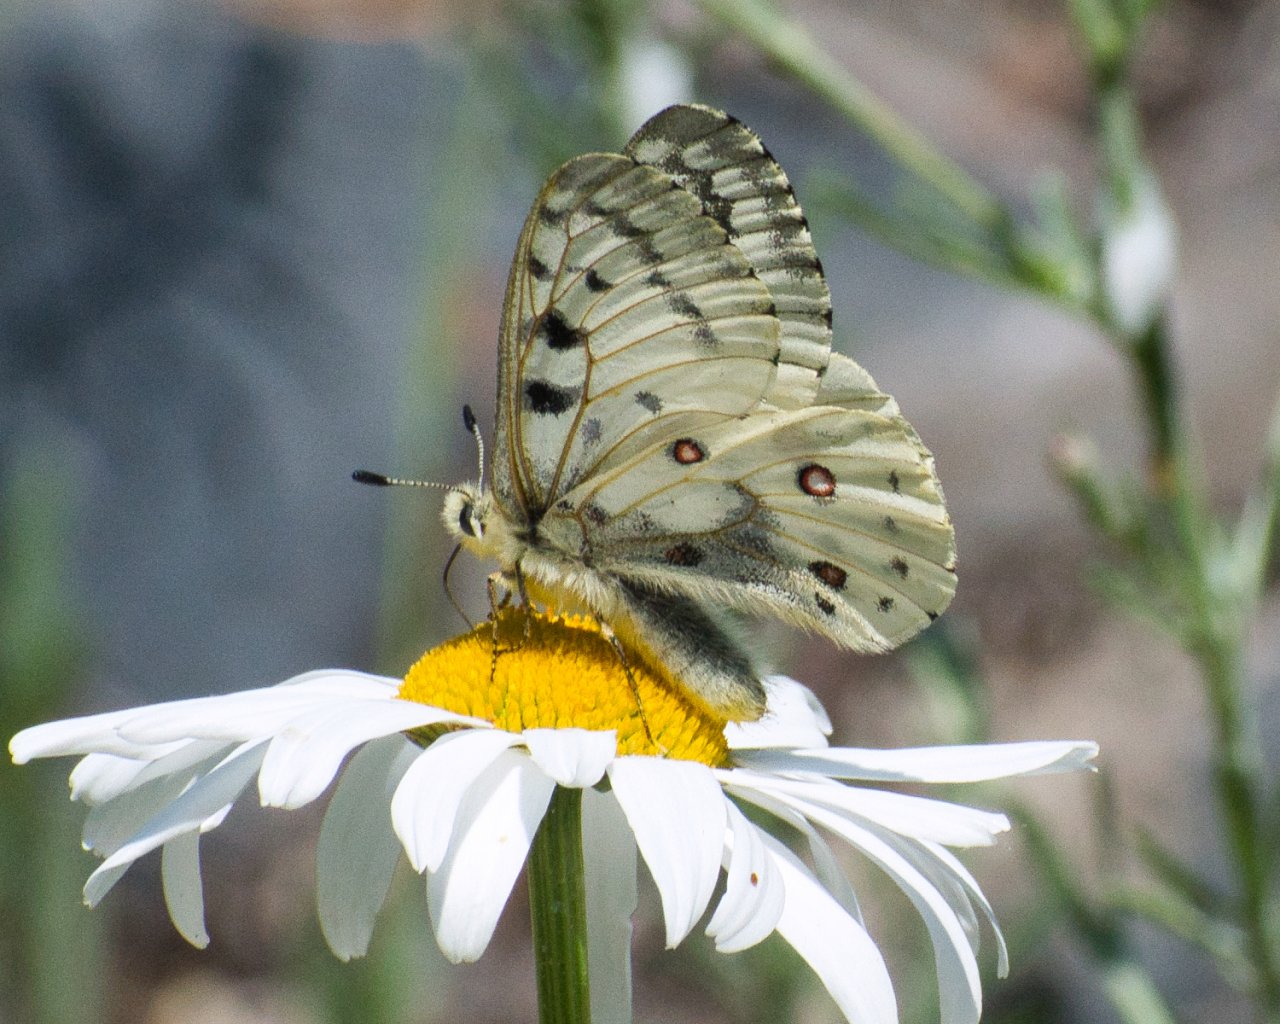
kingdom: Animalia
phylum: Arthropoda
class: Insecta
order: Lepidoptera
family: Papilionidae
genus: Parnassius
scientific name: Parnassius smintheus
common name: Rocky Mountain Parnassian
